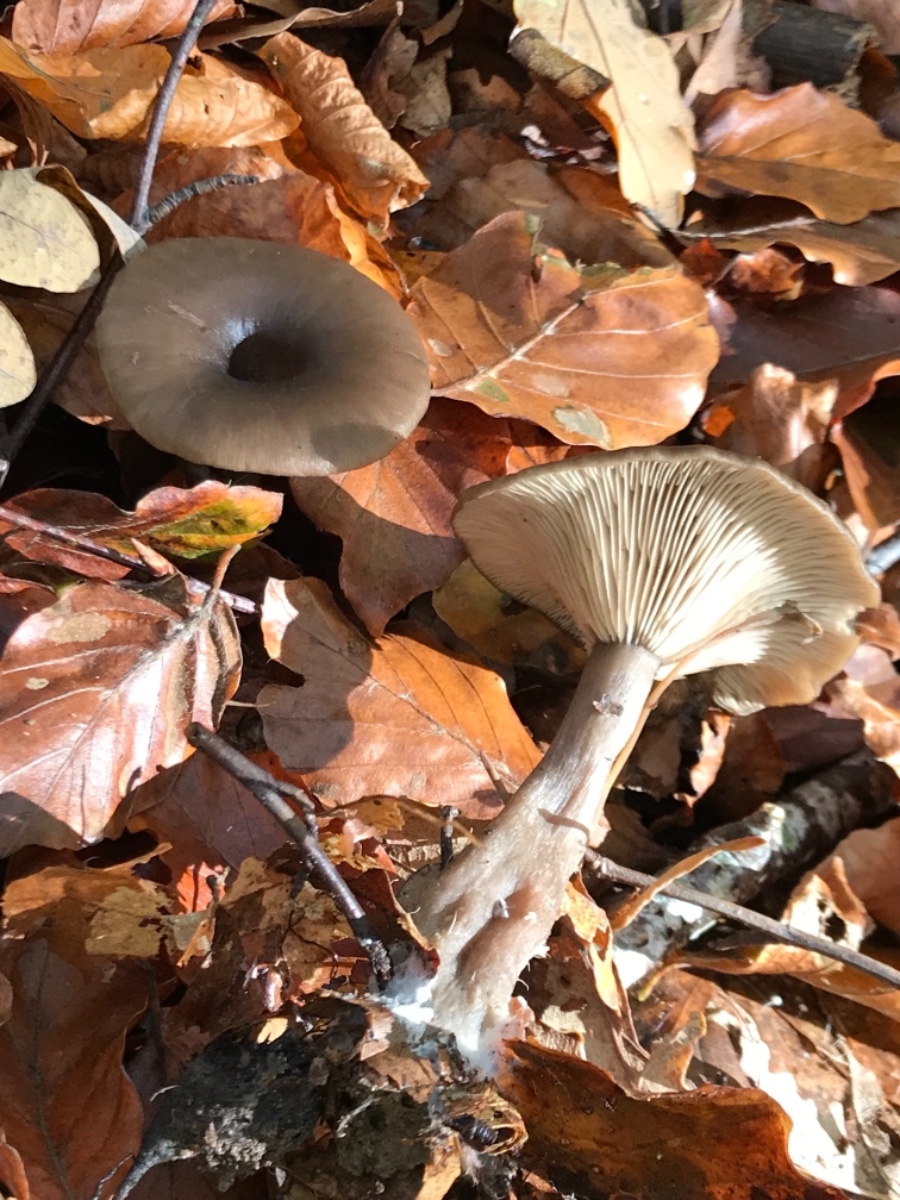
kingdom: Fungi
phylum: Basidiomycota
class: Agaricomycetes
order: Agaricales
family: Pseudoclitocybaceae
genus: Pseudoclitocybe
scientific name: Pseudoclitocybe cyathiformis
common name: almindelig bægertragthat
